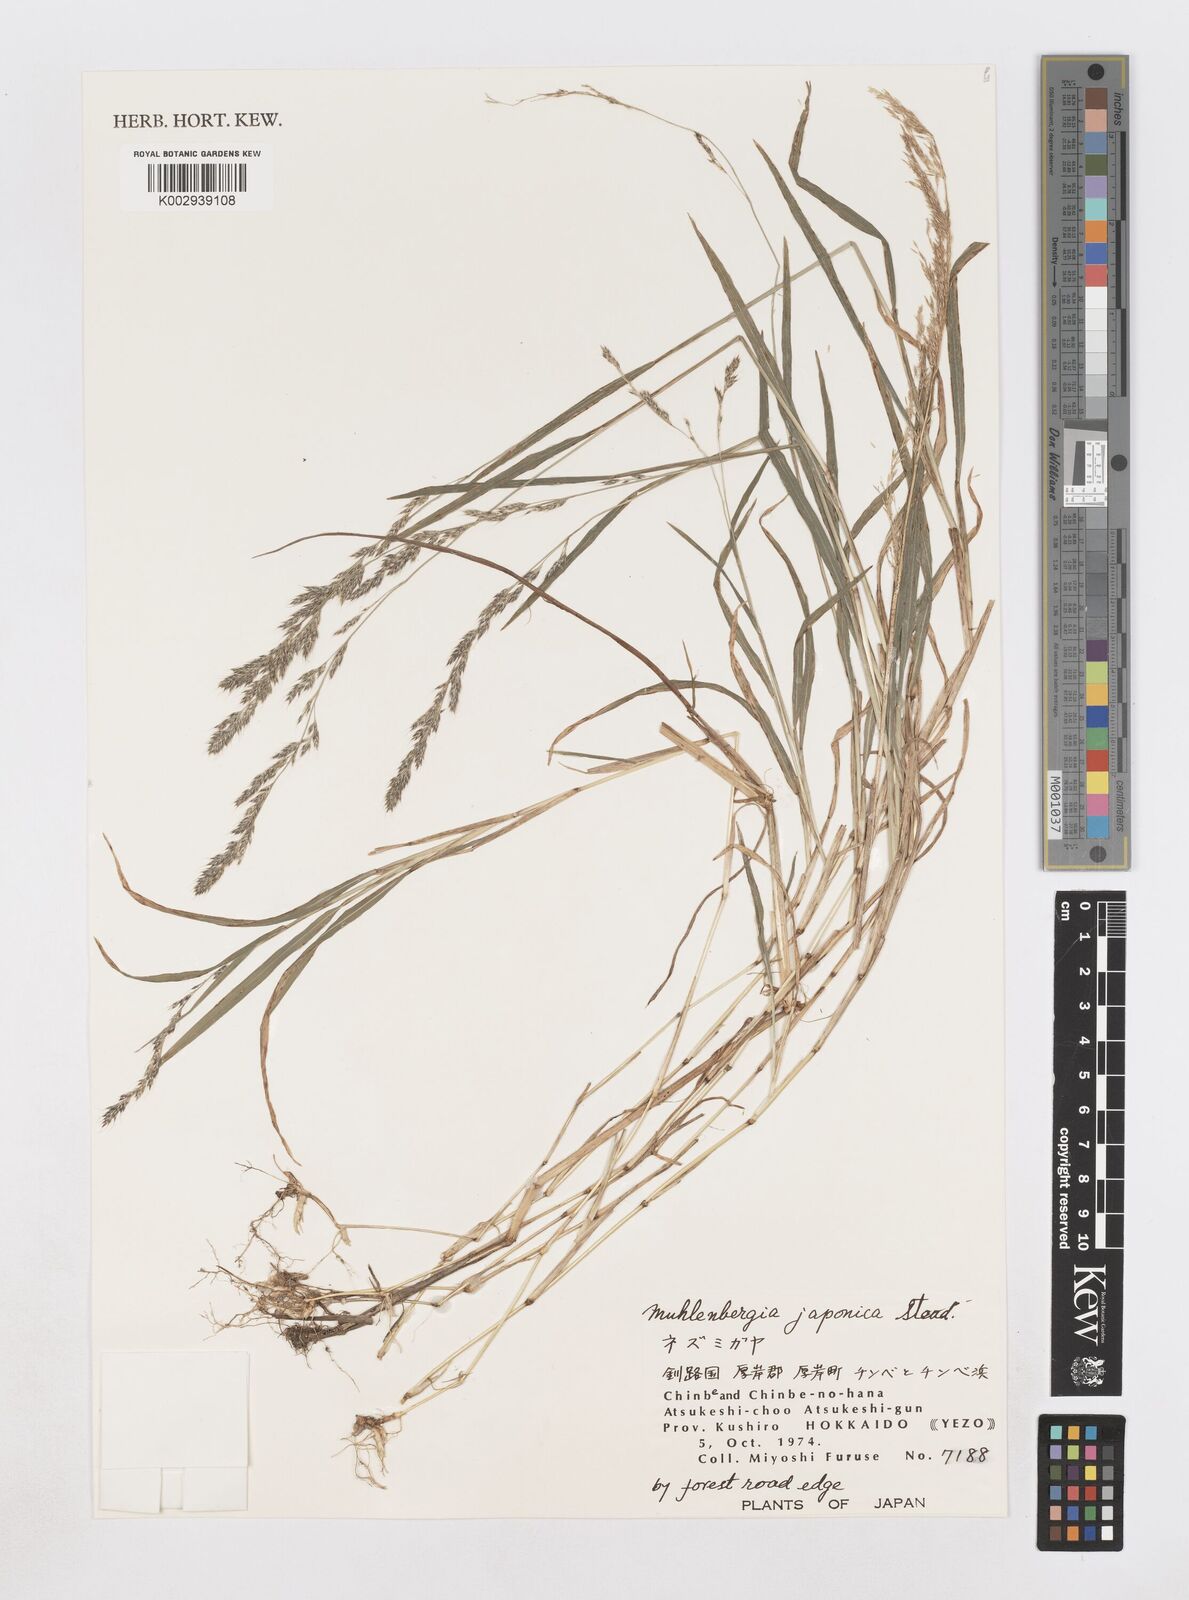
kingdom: Plantae
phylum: Tracheophyta
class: Liliopsida
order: Poales
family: Poaceae
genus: Muhlenbergia
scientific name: Muhlenbergia japonica
